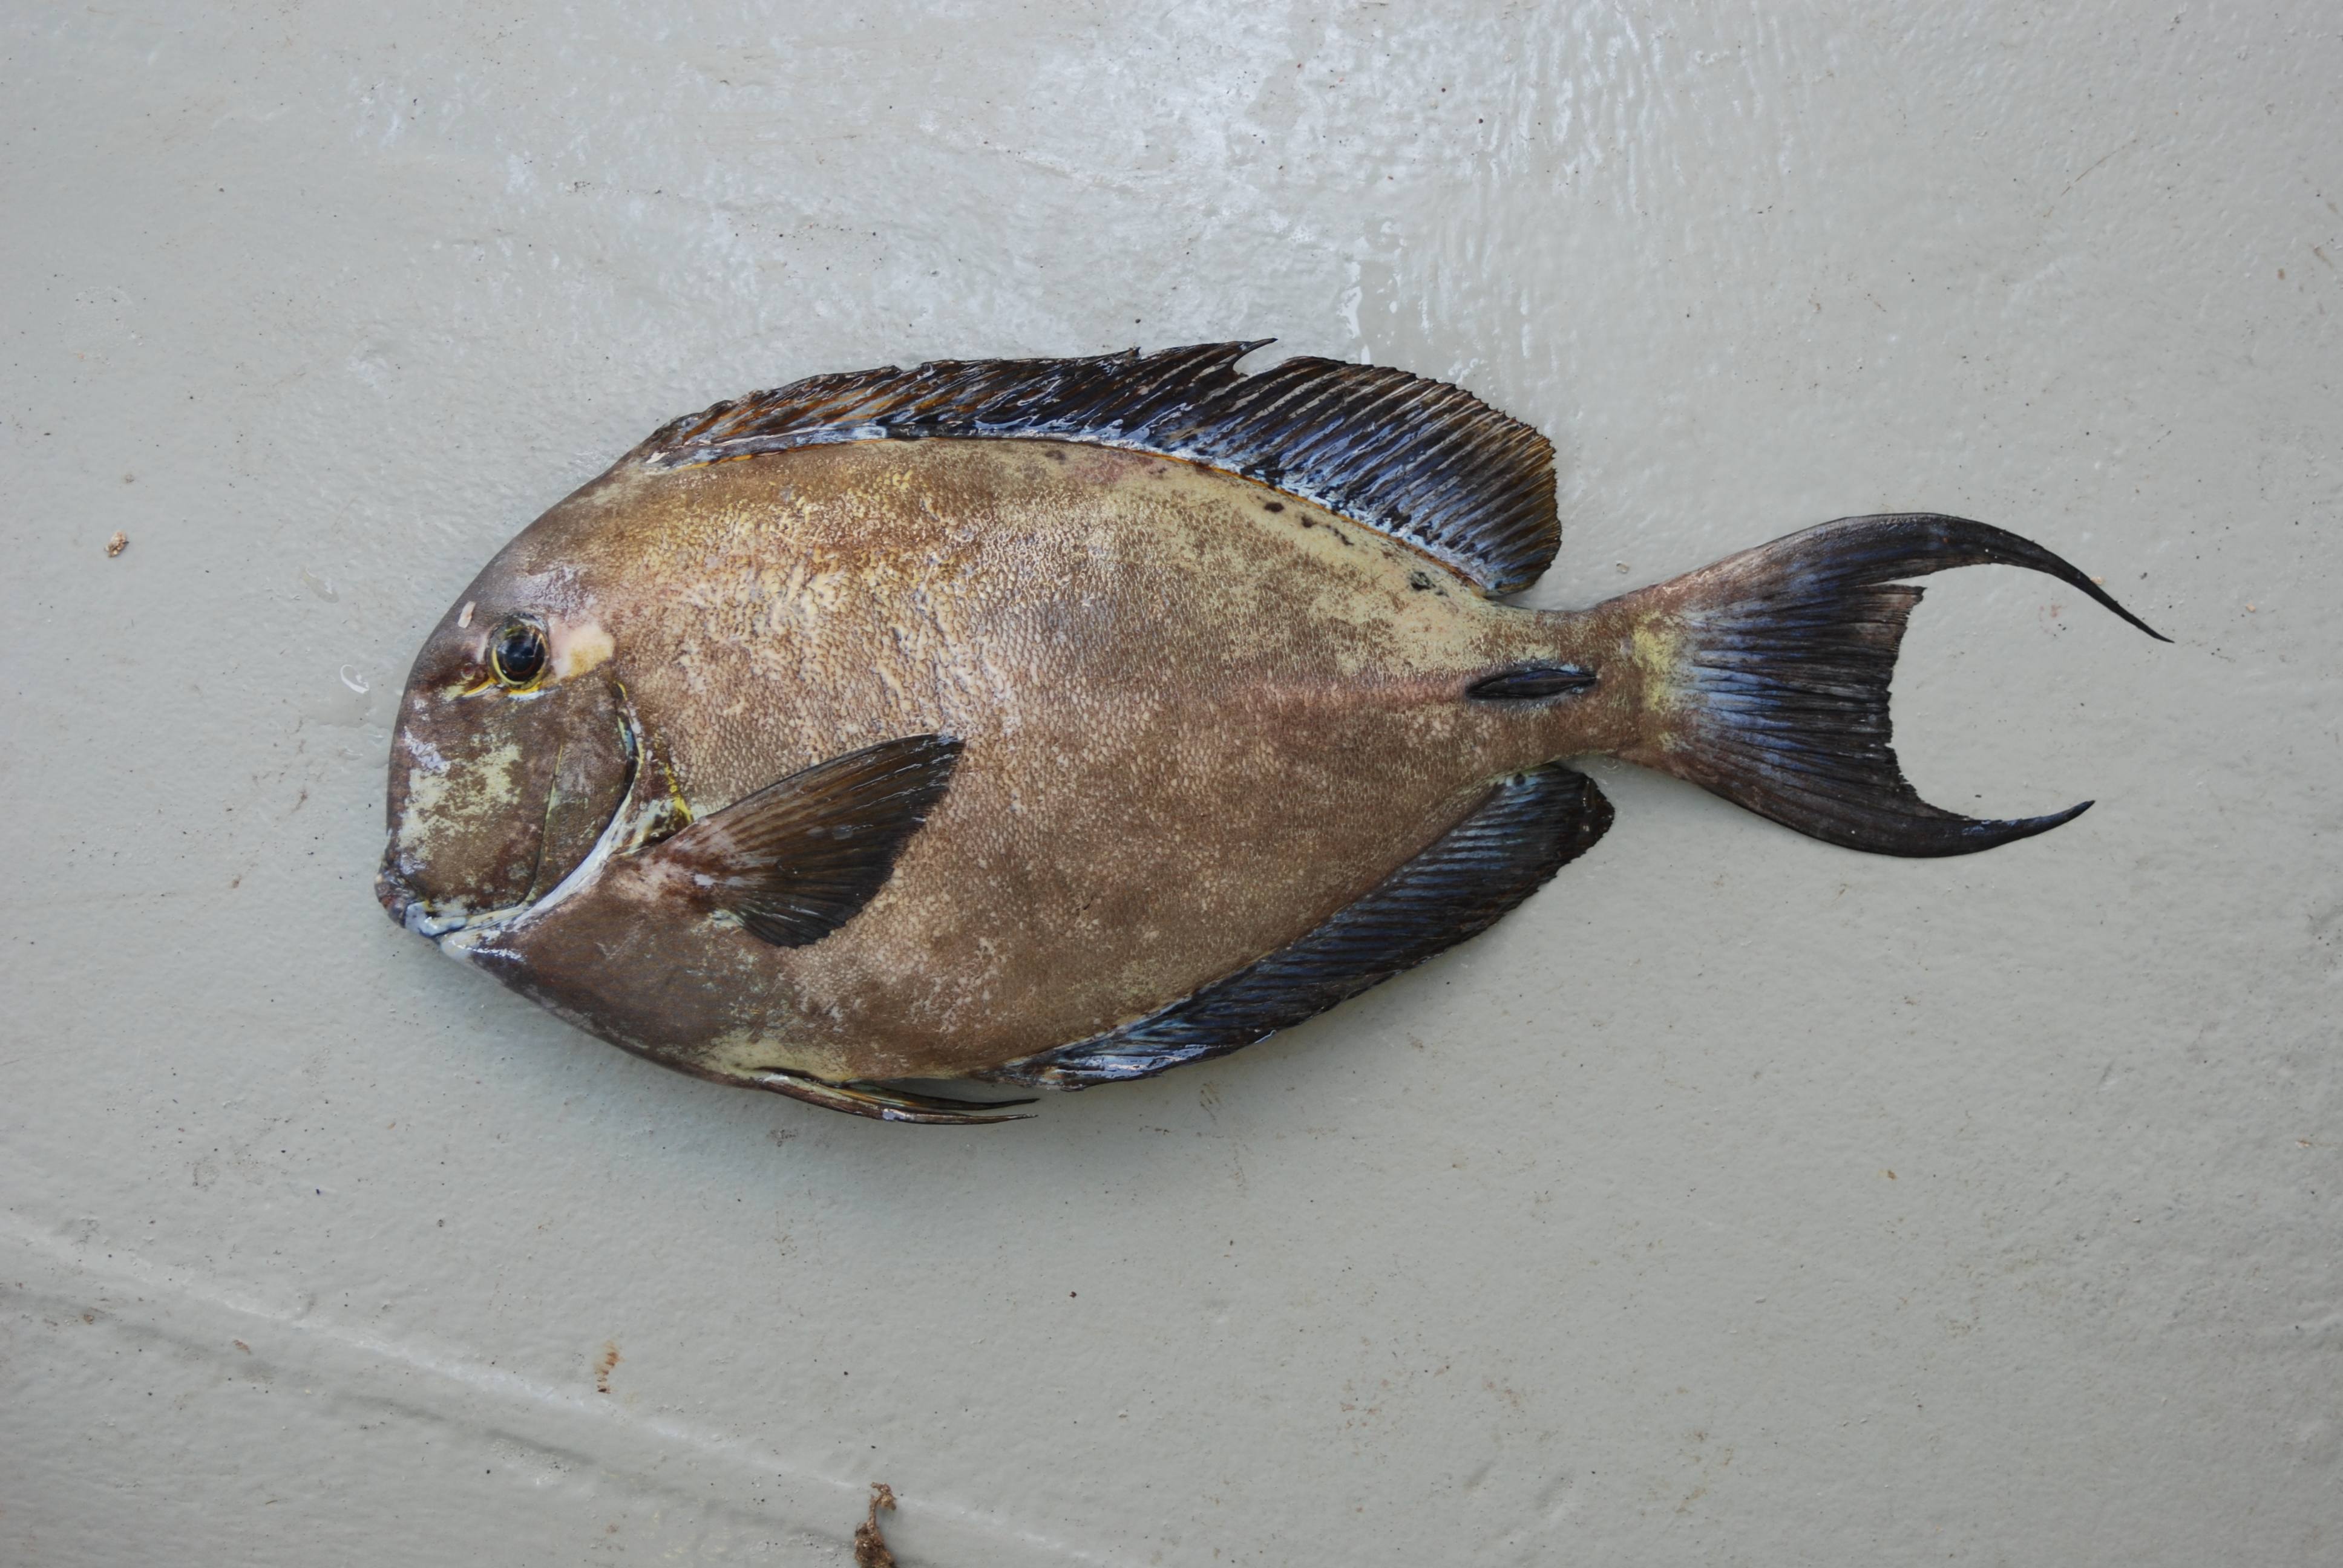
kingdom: Animalia
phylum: Chordata
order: Perciformes
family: Acanthuridae
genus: Acanthurus
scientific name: Acanthurus blochii
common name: Blue-banded pualu
